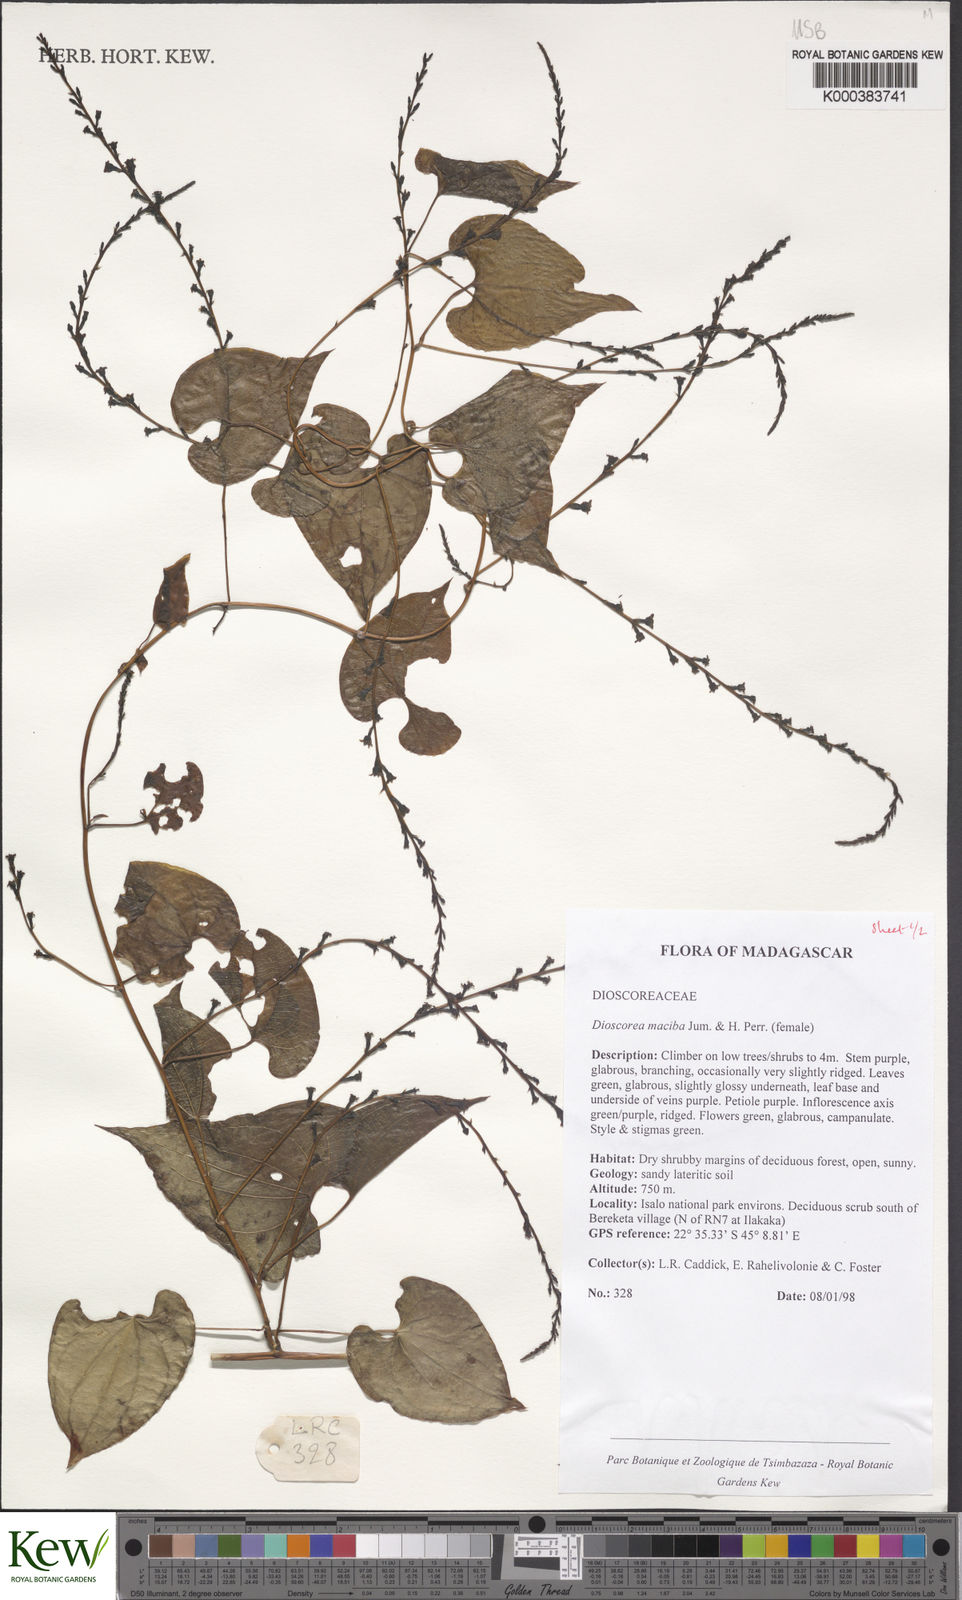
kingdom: Plantae
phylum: Tracheophyta
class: Liliopsida
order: Dioscoreales
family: Dioscoreaceae
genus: Dioscorea
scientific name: Dioscorea
